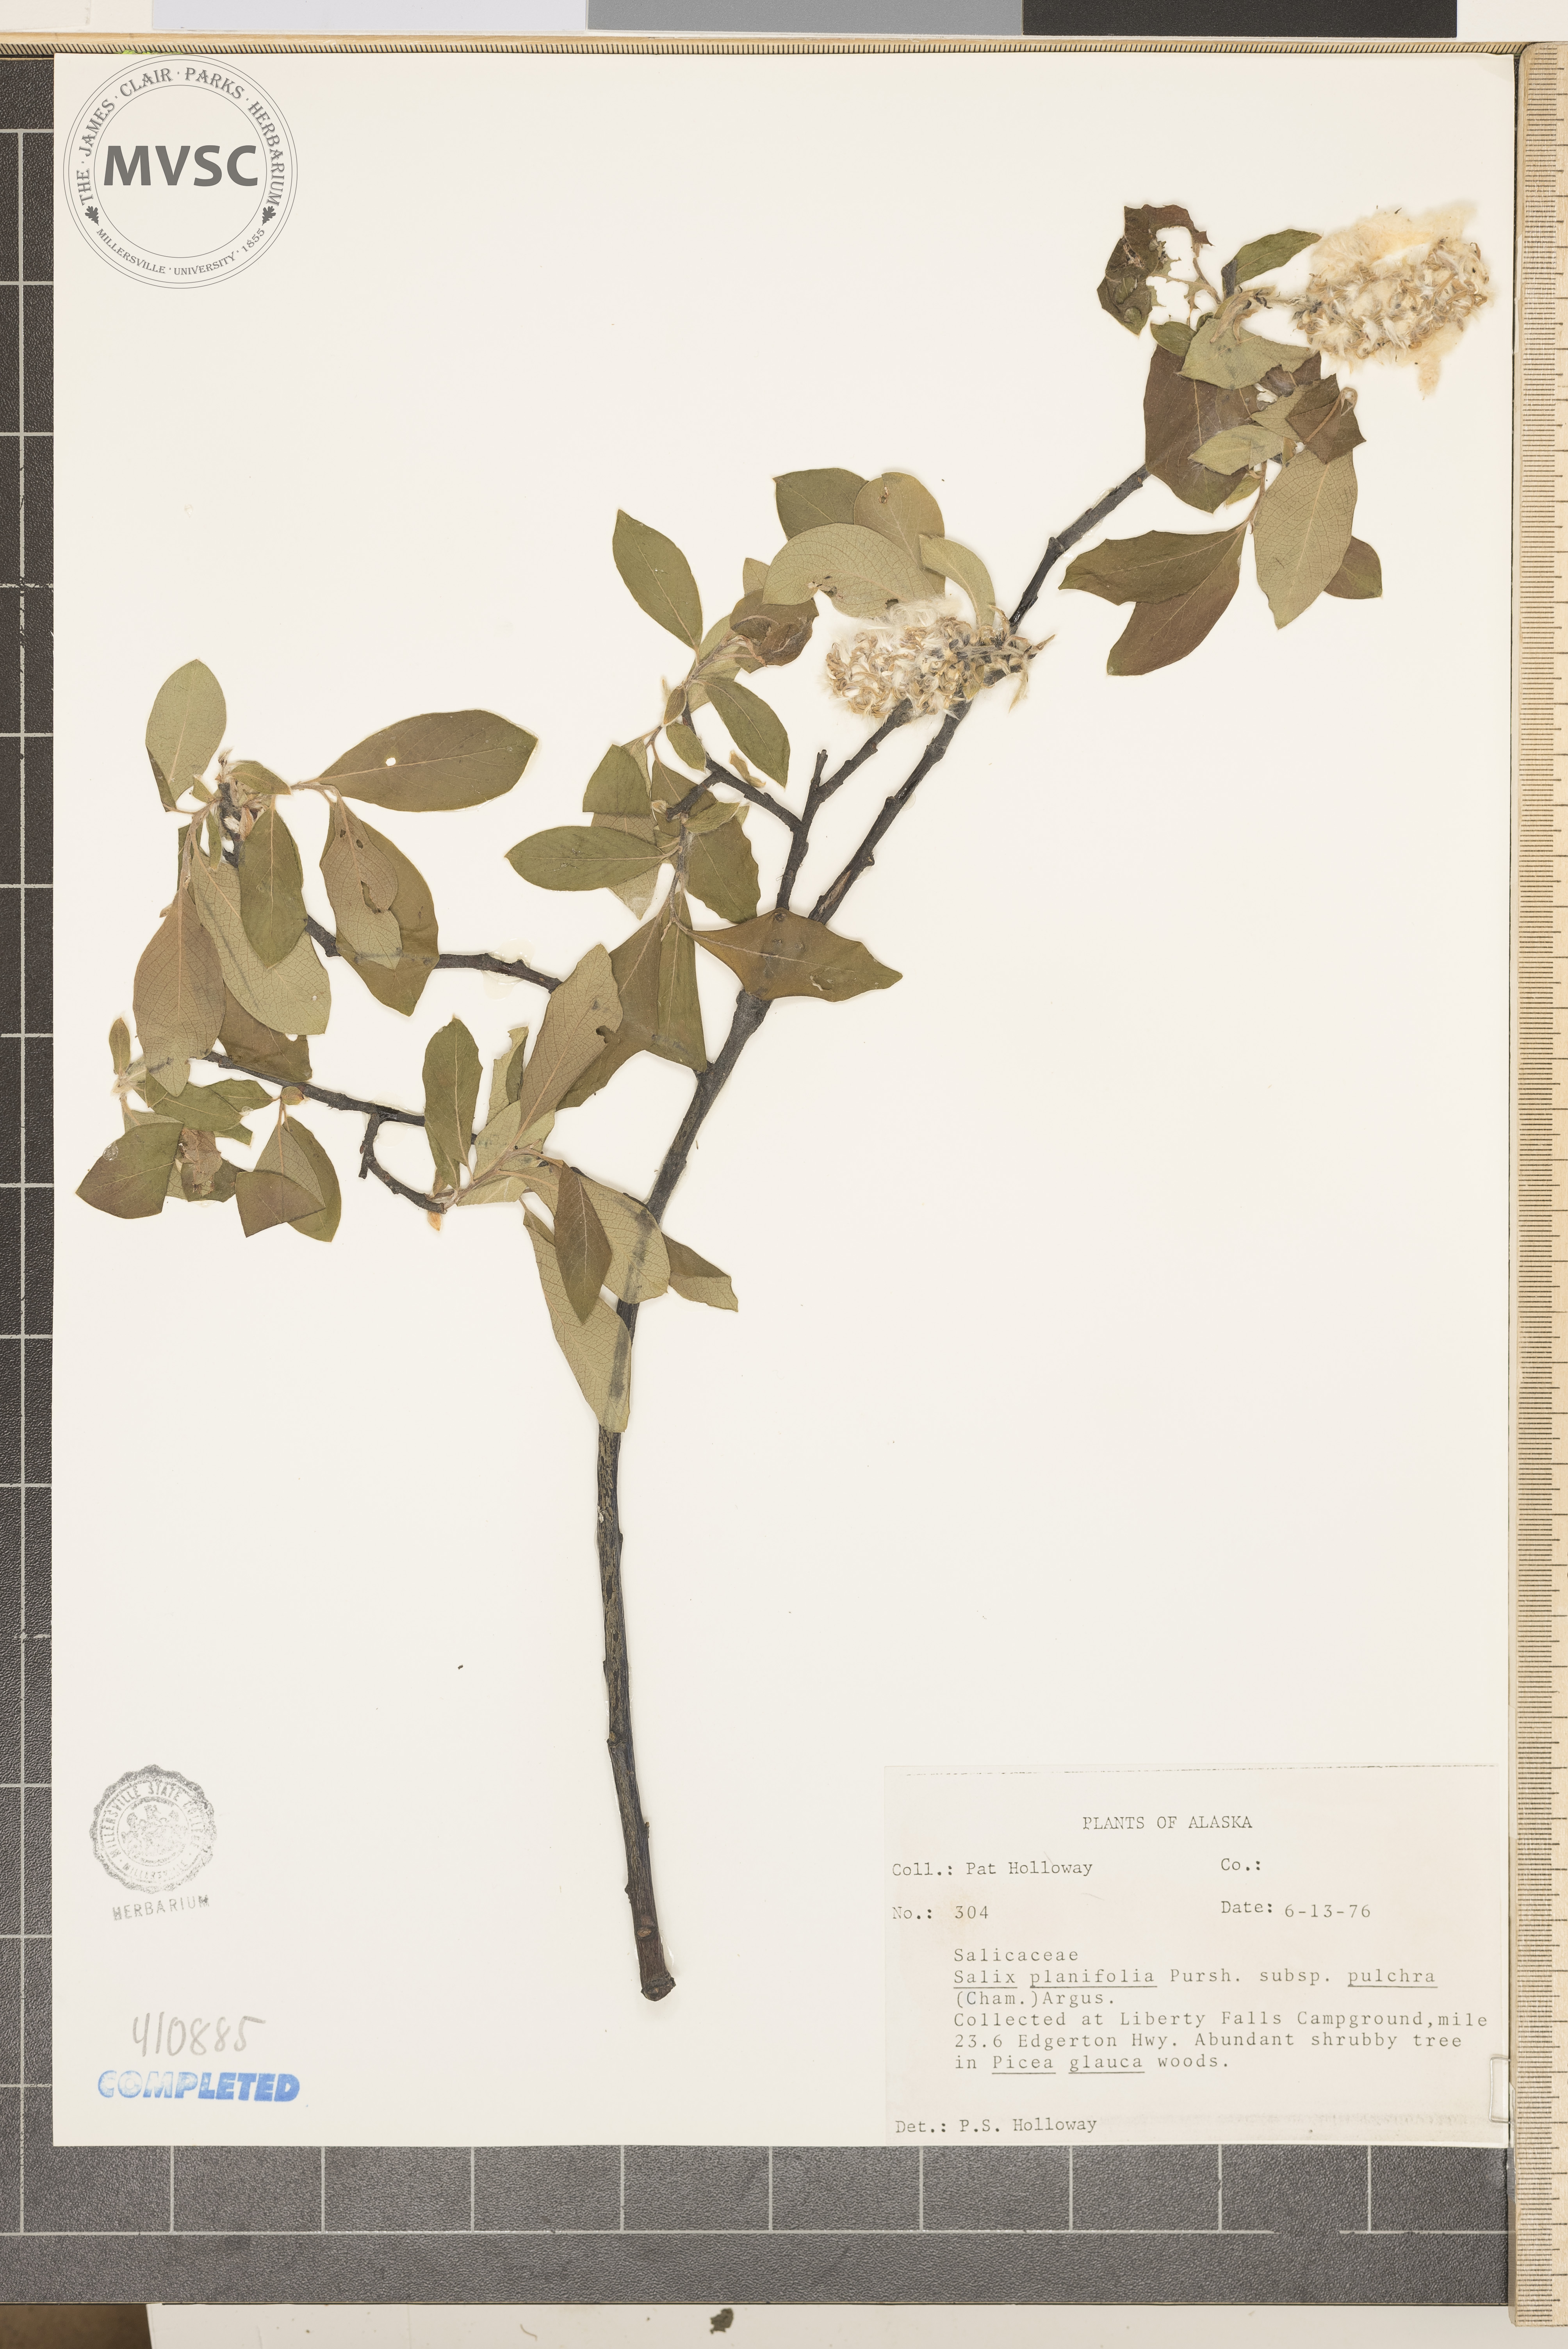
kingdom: Plantae
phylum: Tracheophyta
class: Magnoliopsida
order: Malpighiales
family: Salicaceae
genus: Salix
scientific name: Salix planifolia
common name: Mountain willow
